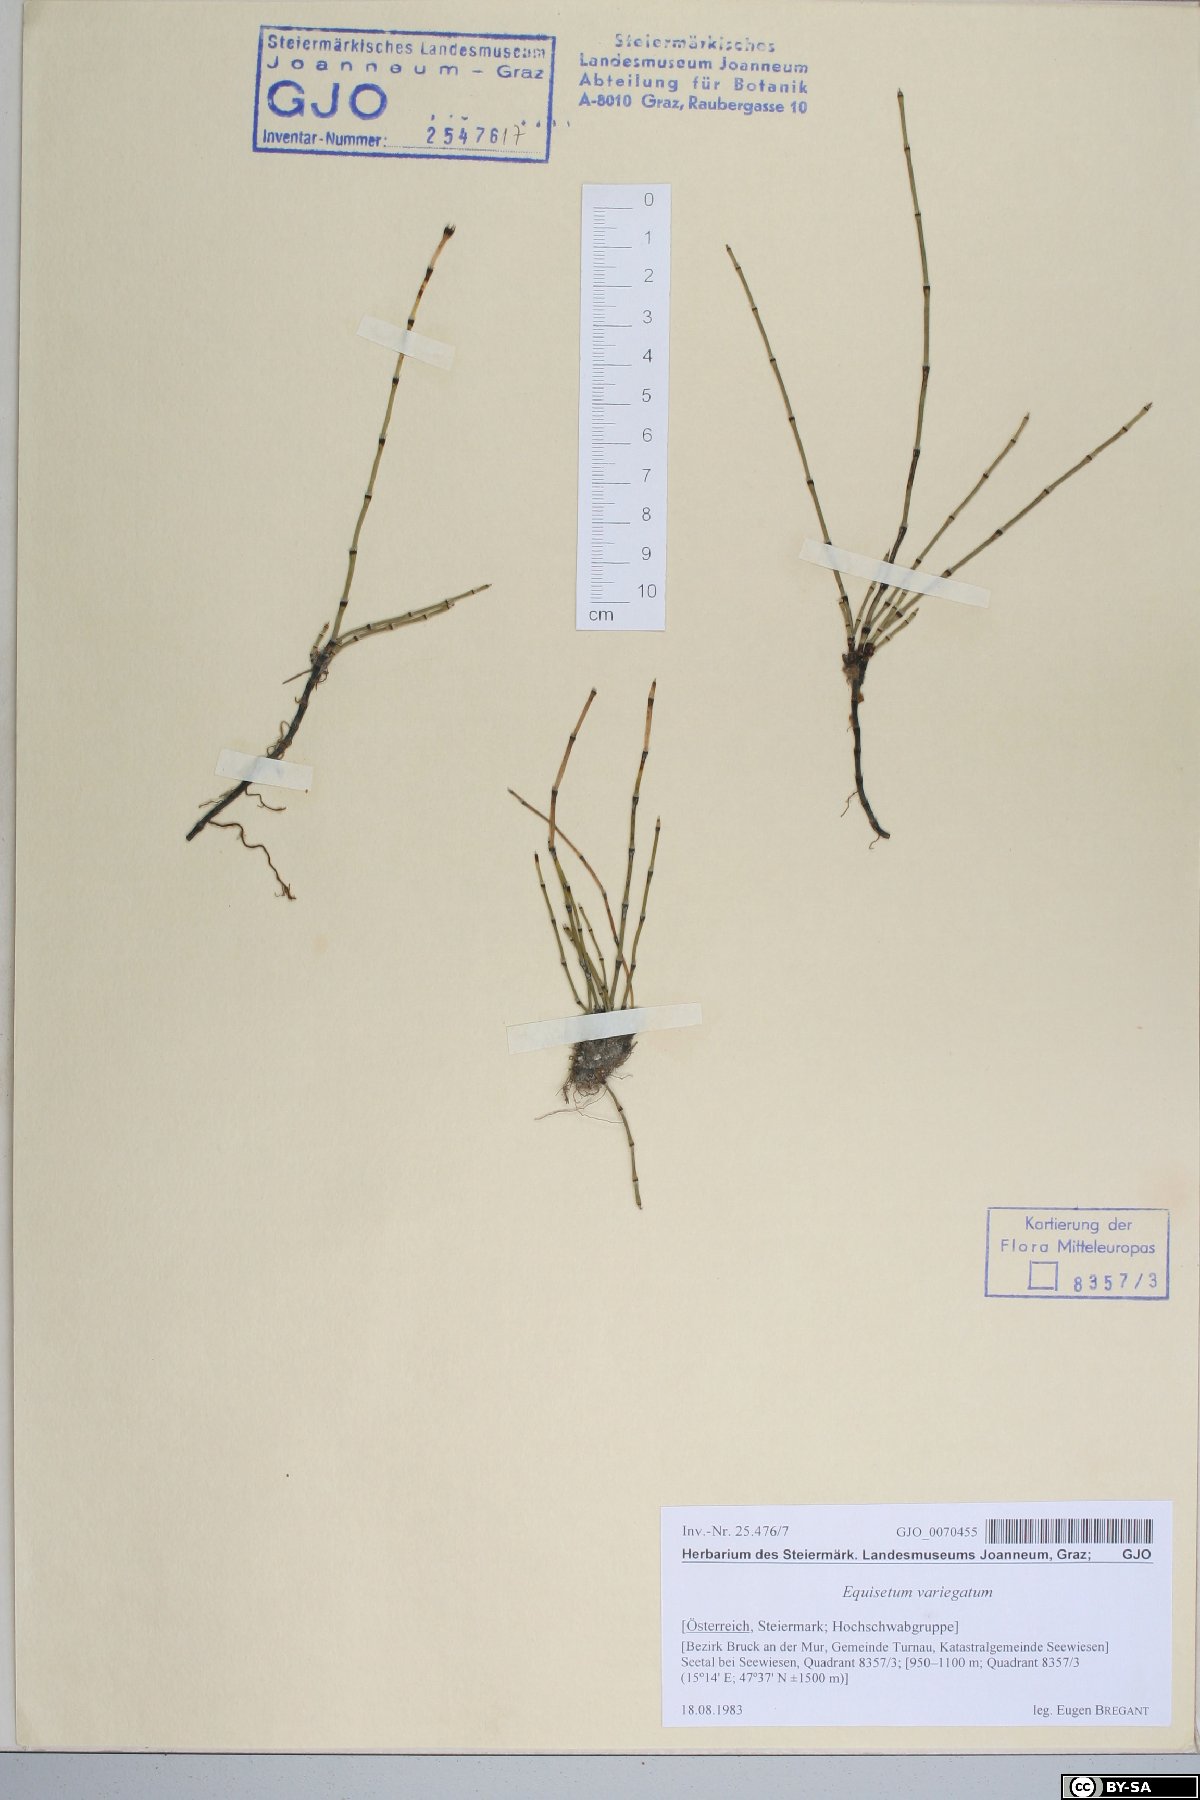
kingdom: Plantae
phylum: Tracheophyta
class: Polypodiopsida
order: Equisetales
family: Equisetaceae
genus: Equisetum
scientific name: Equisetum variegatum
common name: Variegated horsetail
